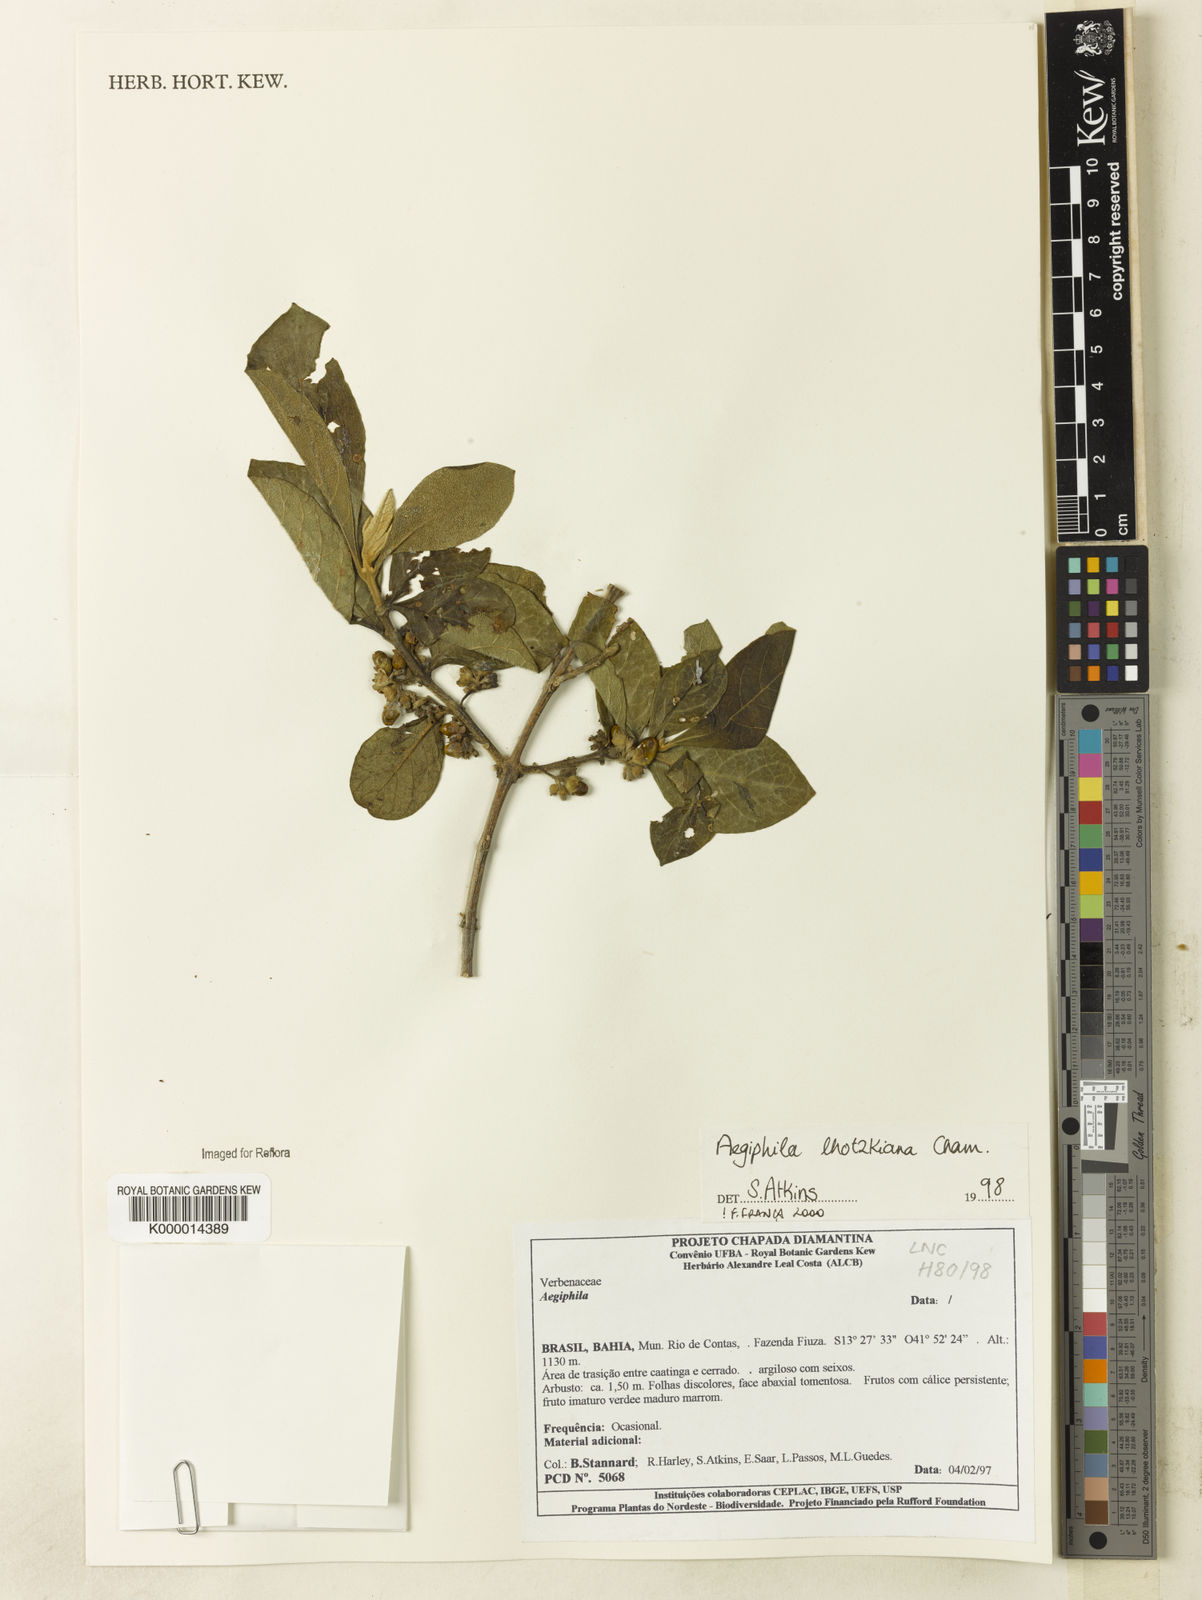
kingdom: Plantae
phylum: Tracheophyta
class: Magnoliopsida
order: Lamiales
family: Lamiaceae
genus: Aegiphila
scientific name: Aegiphila verticillata
